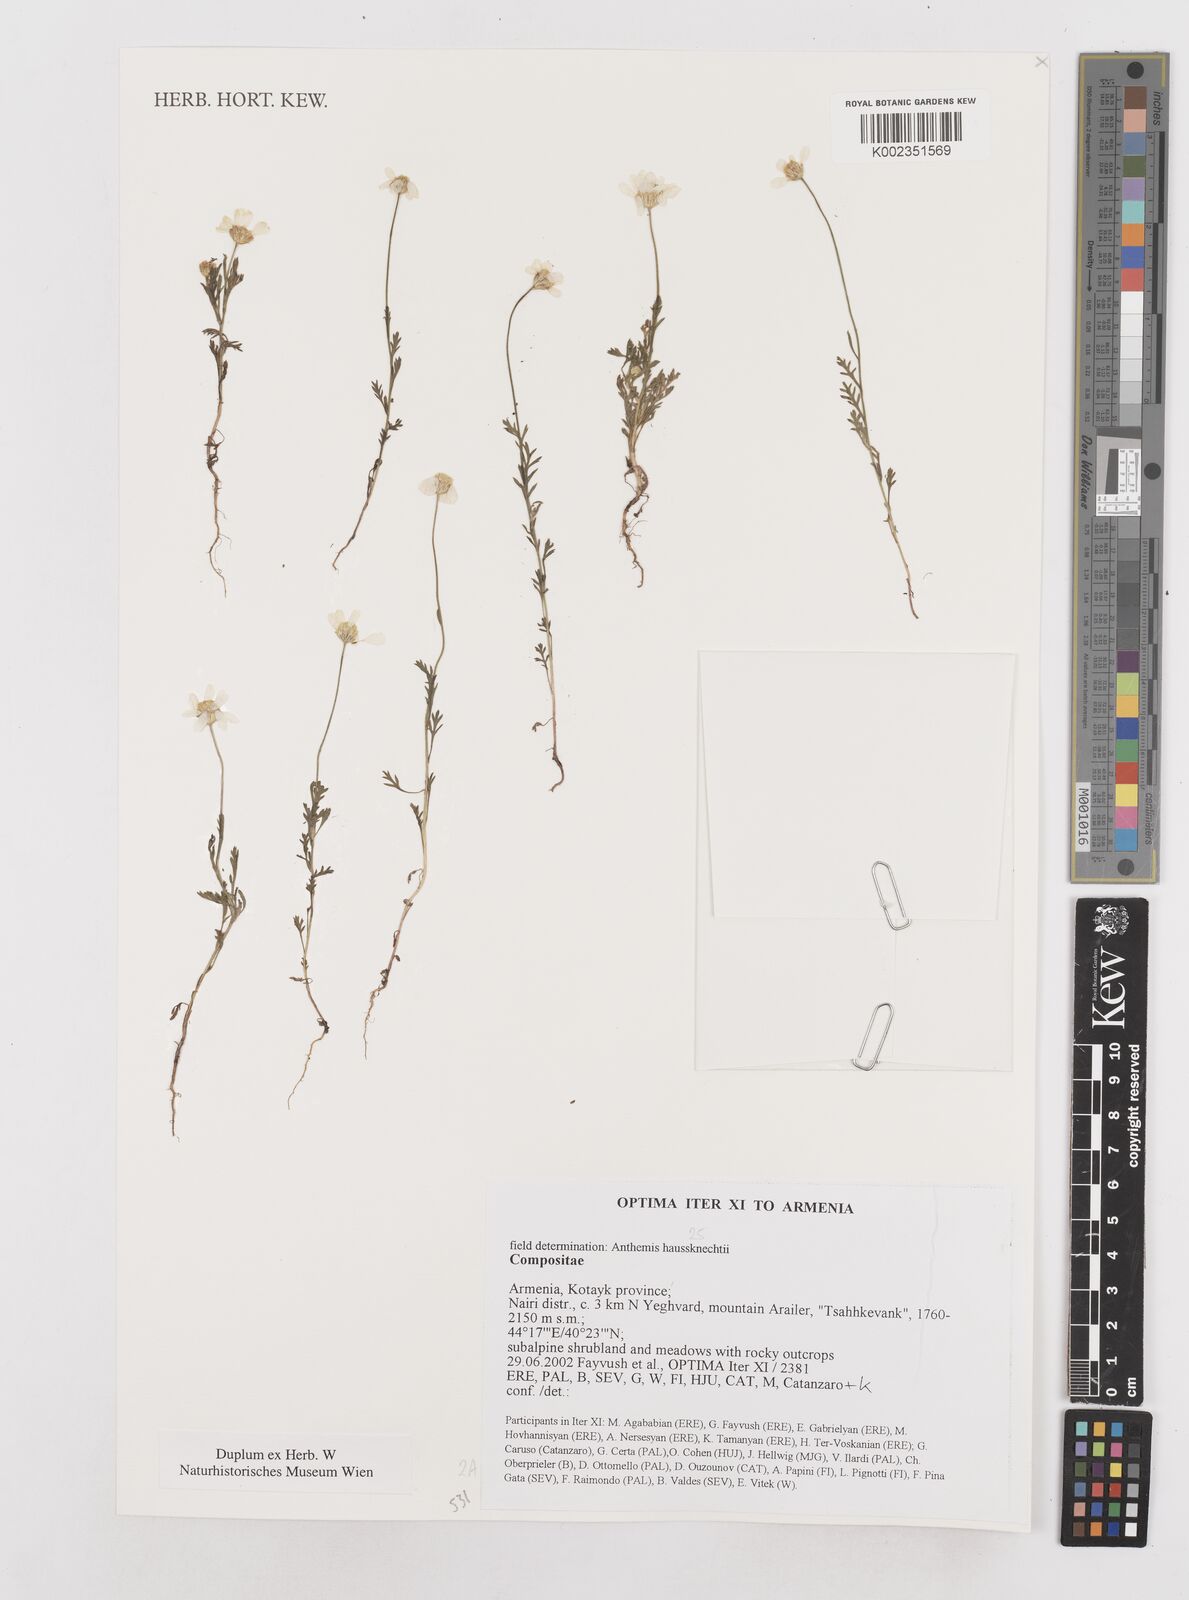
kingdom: Plantae
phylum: Tracheophyta
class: Magnoliopsida
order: Asterales
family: Asteraceae
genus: Anthemis
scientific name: Anthemis haussknechtii
